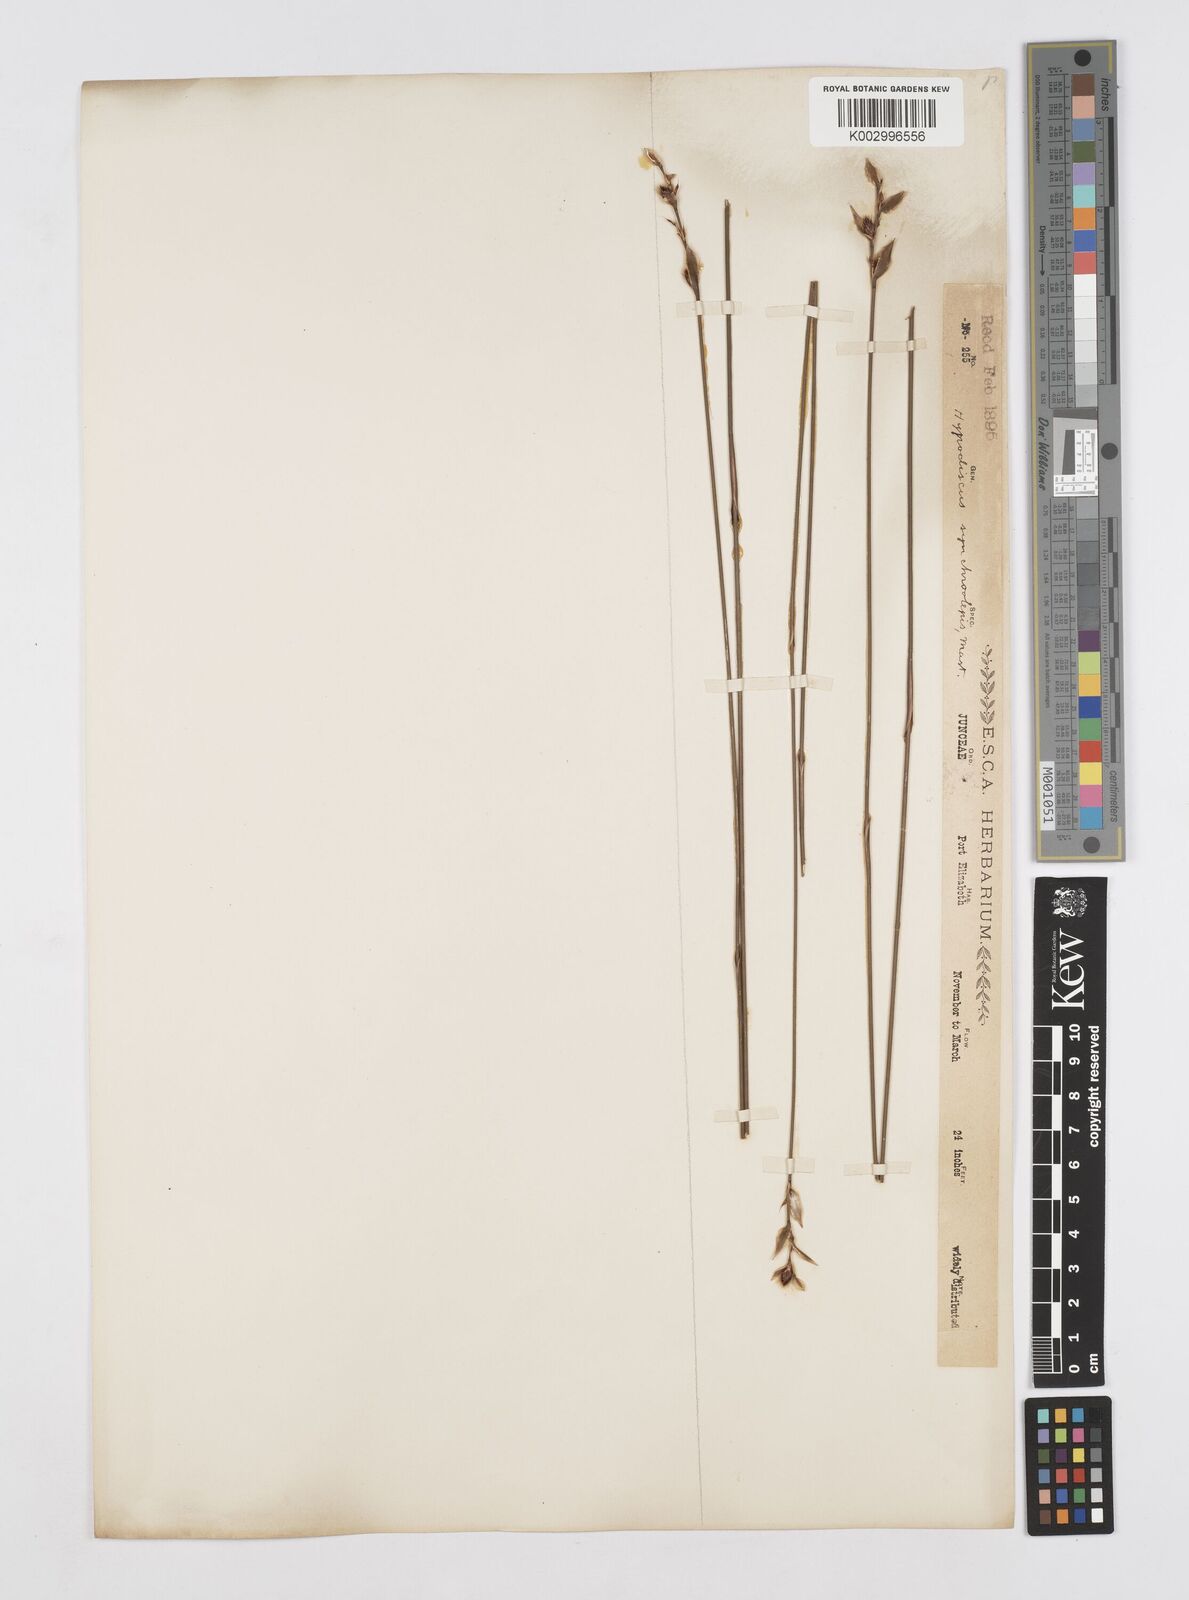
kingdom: Plantae
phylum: Tracheophyta
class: Liliopsida
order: Poales
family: Restionaceae
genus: Hypodiscus
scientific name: Hypodiscus synchroolepis
